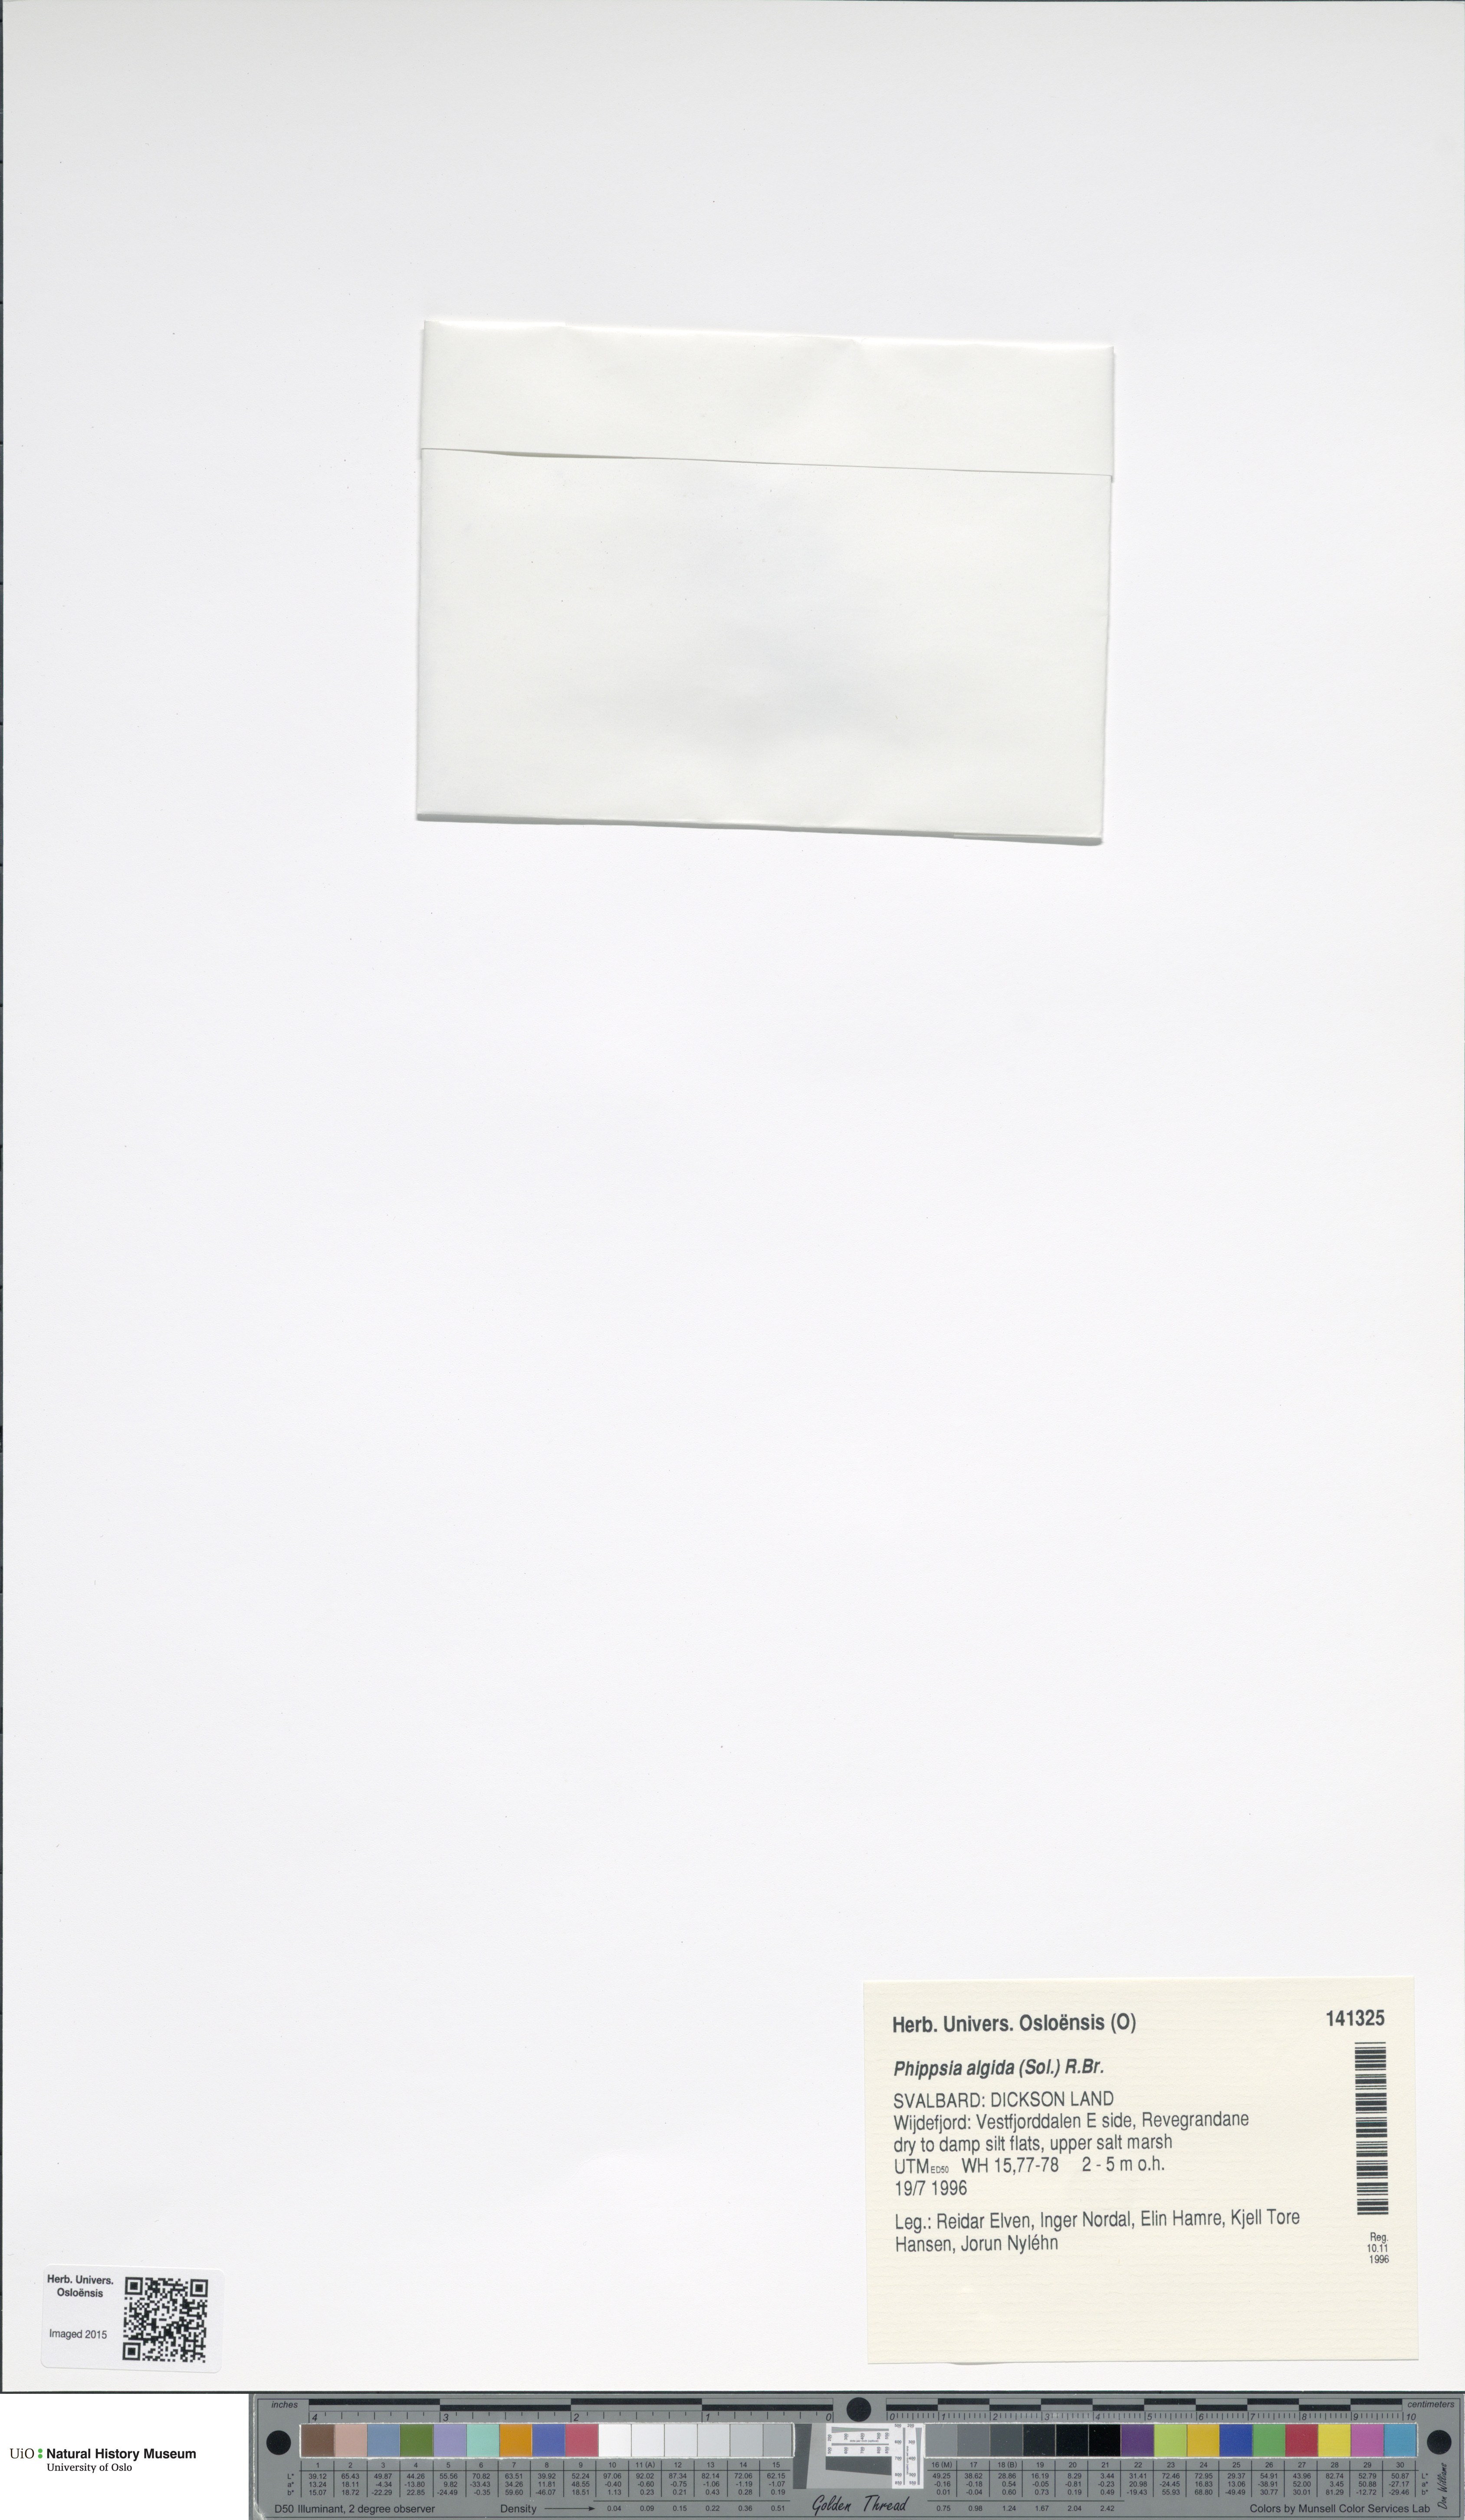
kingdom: Plantae
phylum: Tracheophyta
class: Liliopsida
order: Poales
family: Poaceae
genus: Phippsia
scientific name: Phippsia algida
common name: Ice grass
